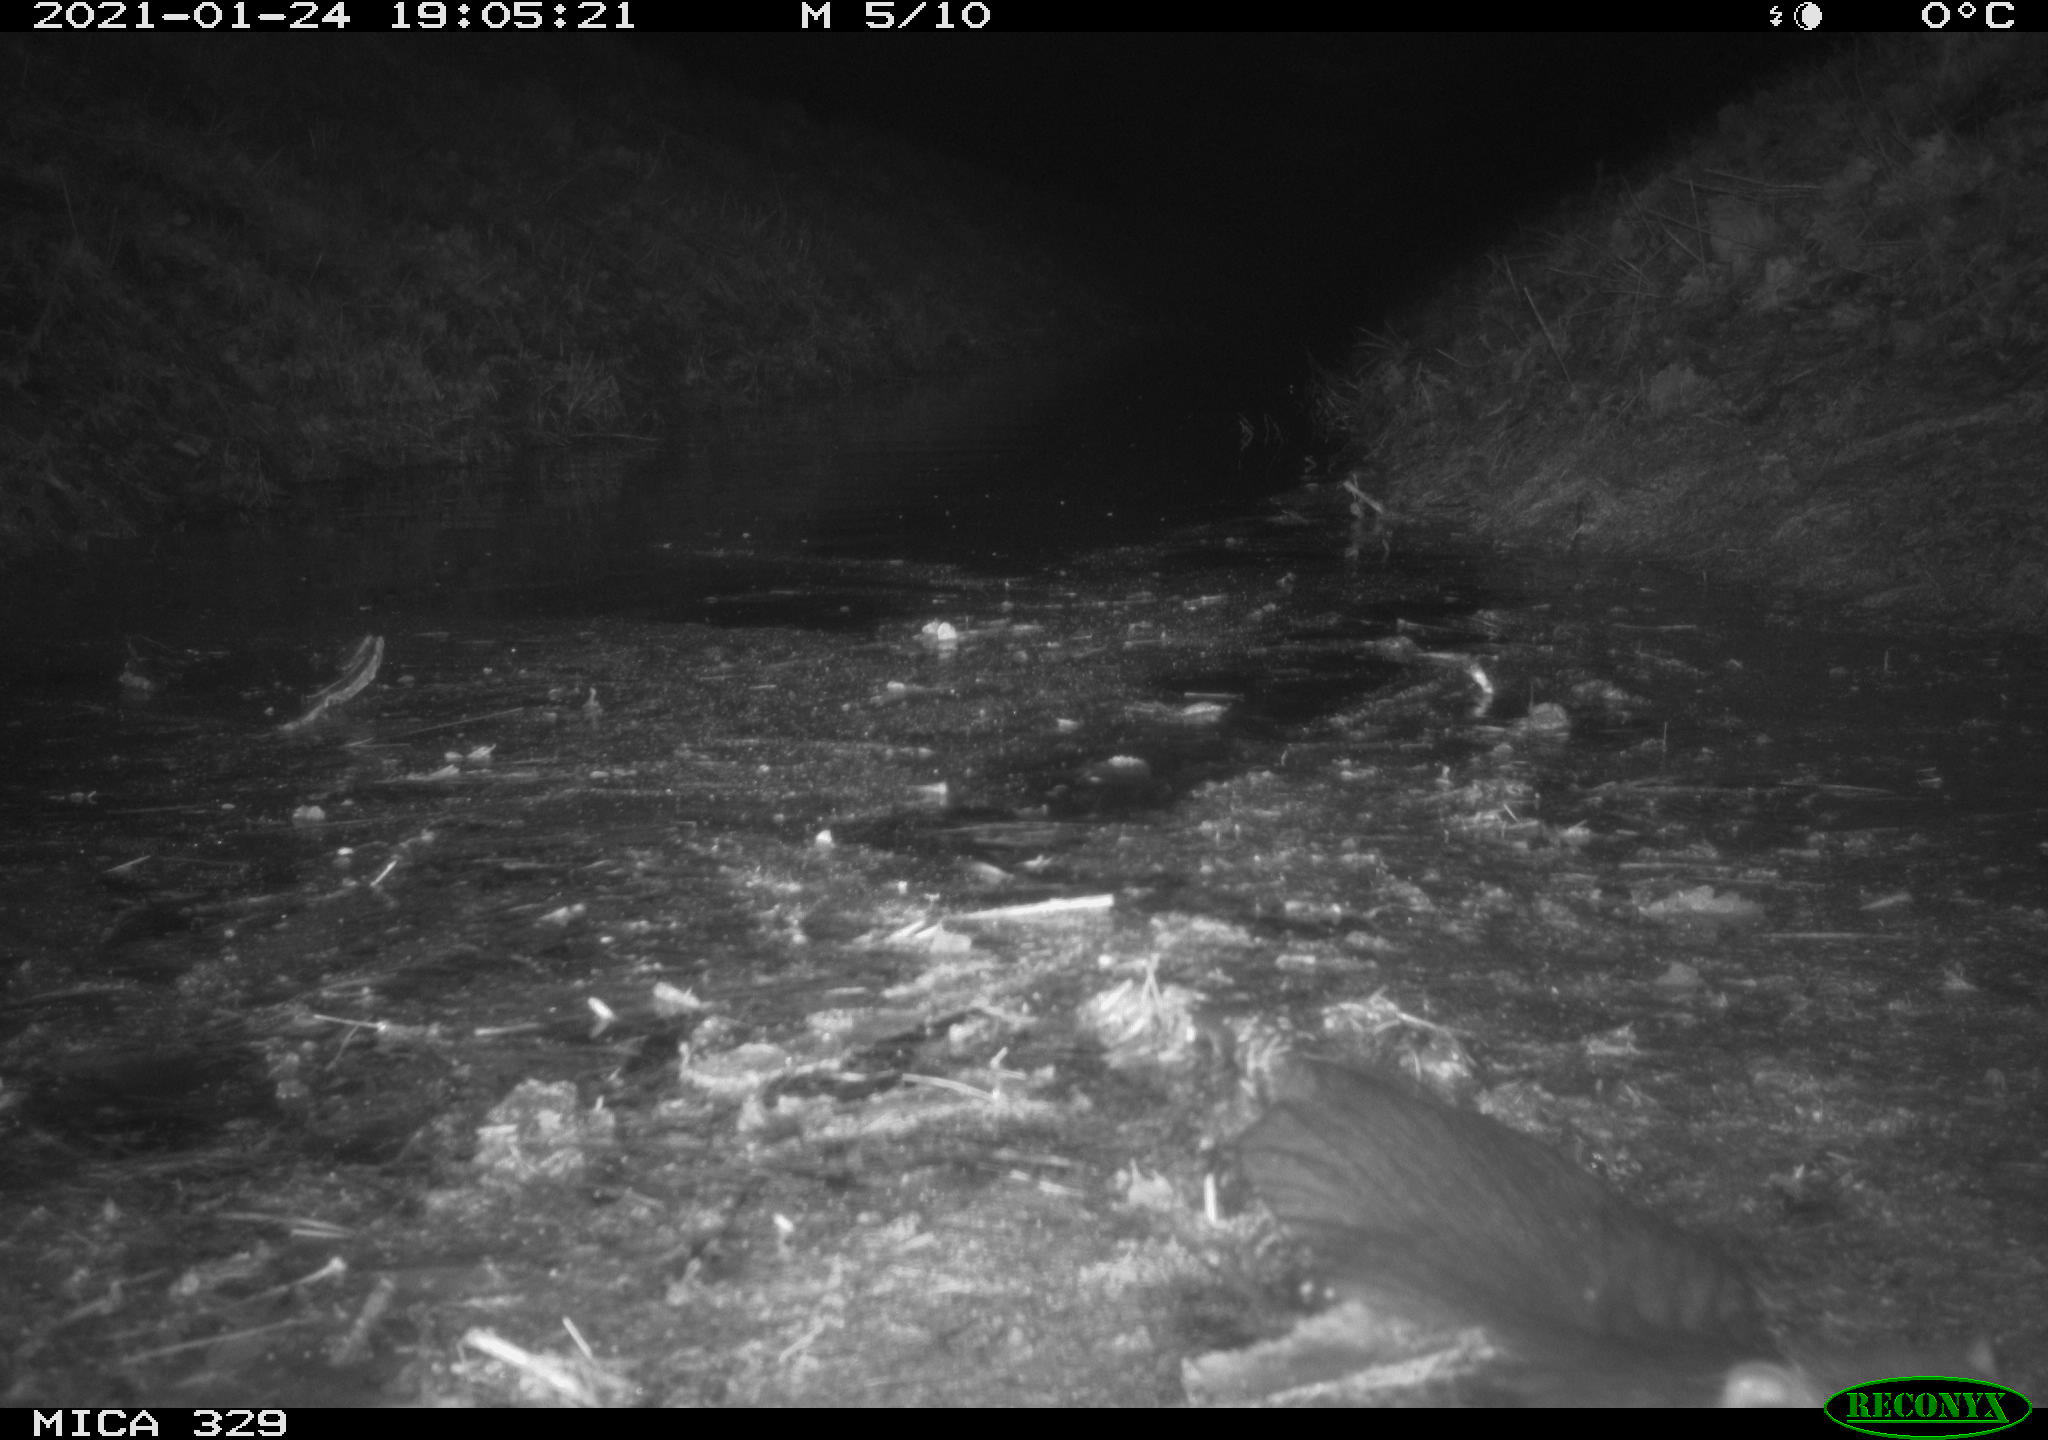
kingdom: Animalia
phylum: Chordata
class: Mammalia
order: Rodentia
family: Myocastoridae
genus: Myocastor
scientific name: Myocastor coypus
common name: Coypu
